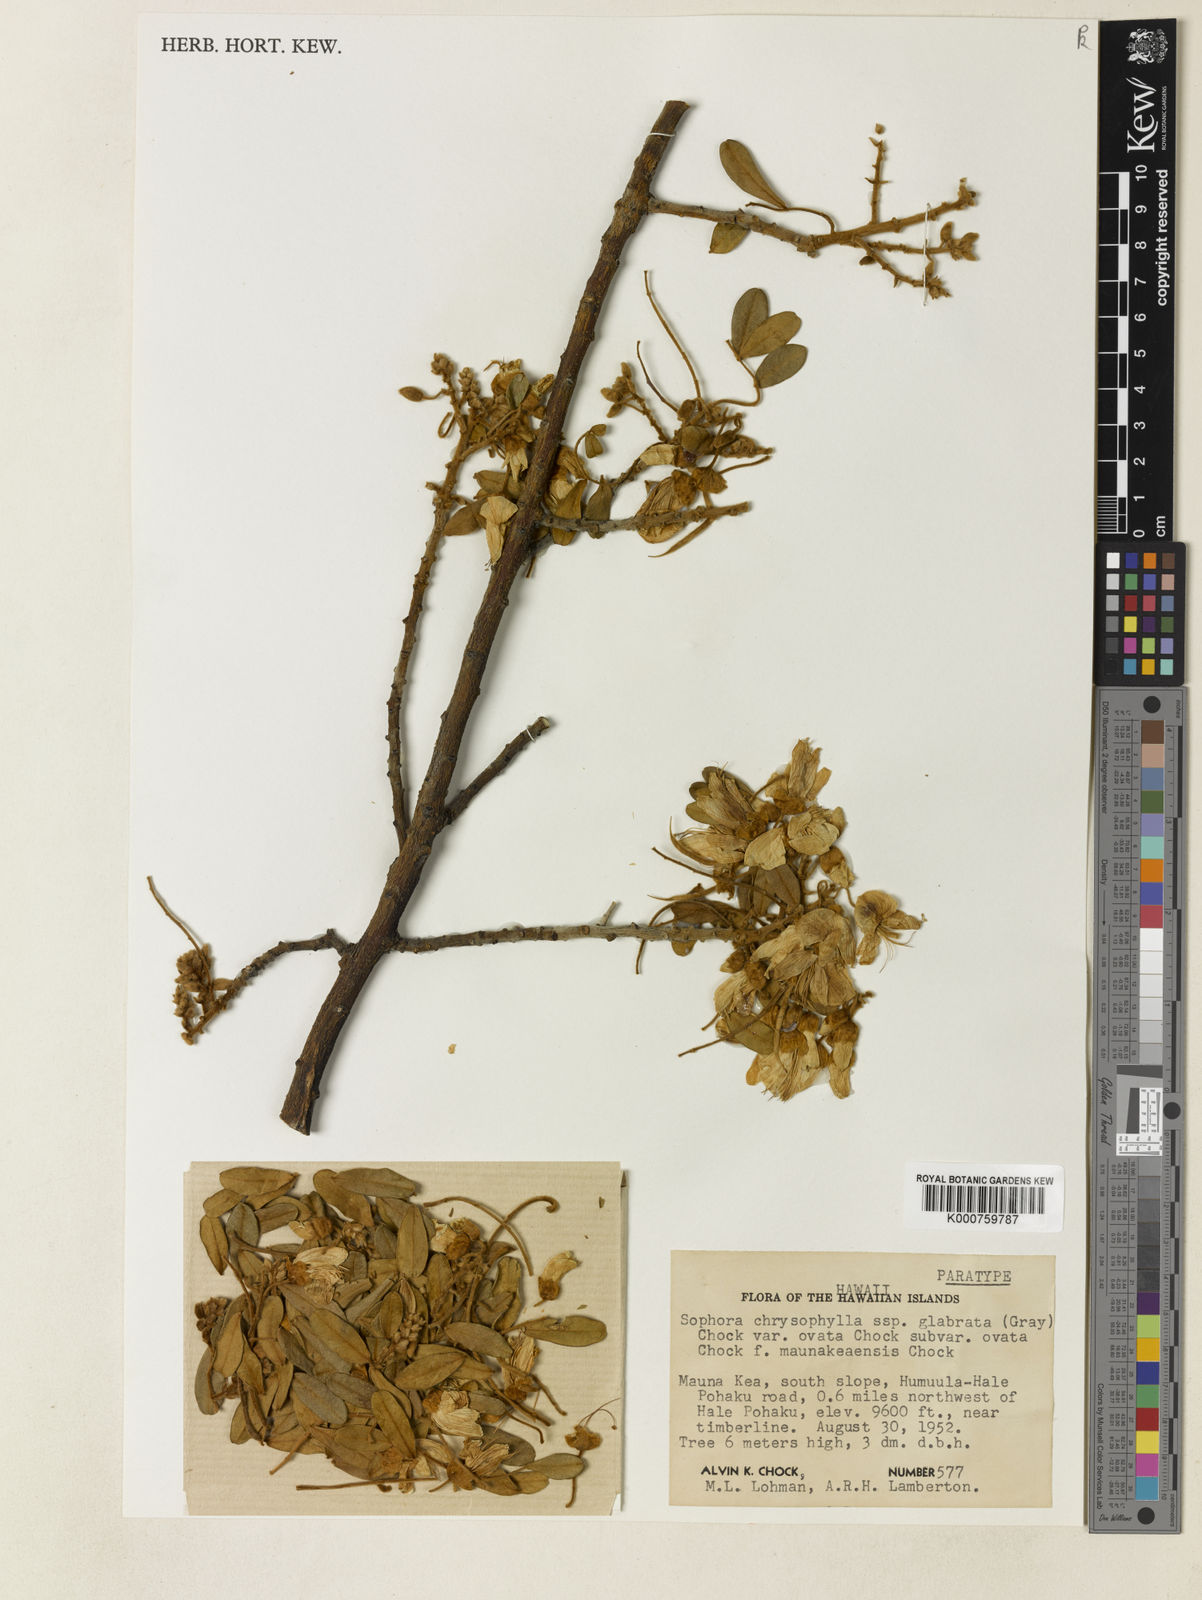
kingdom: Plantae
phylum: Tracheophyta
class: Magnoliopsida
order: Fabales
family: Fabaceae
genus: Sophora
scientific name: Sophora chrysophylla
